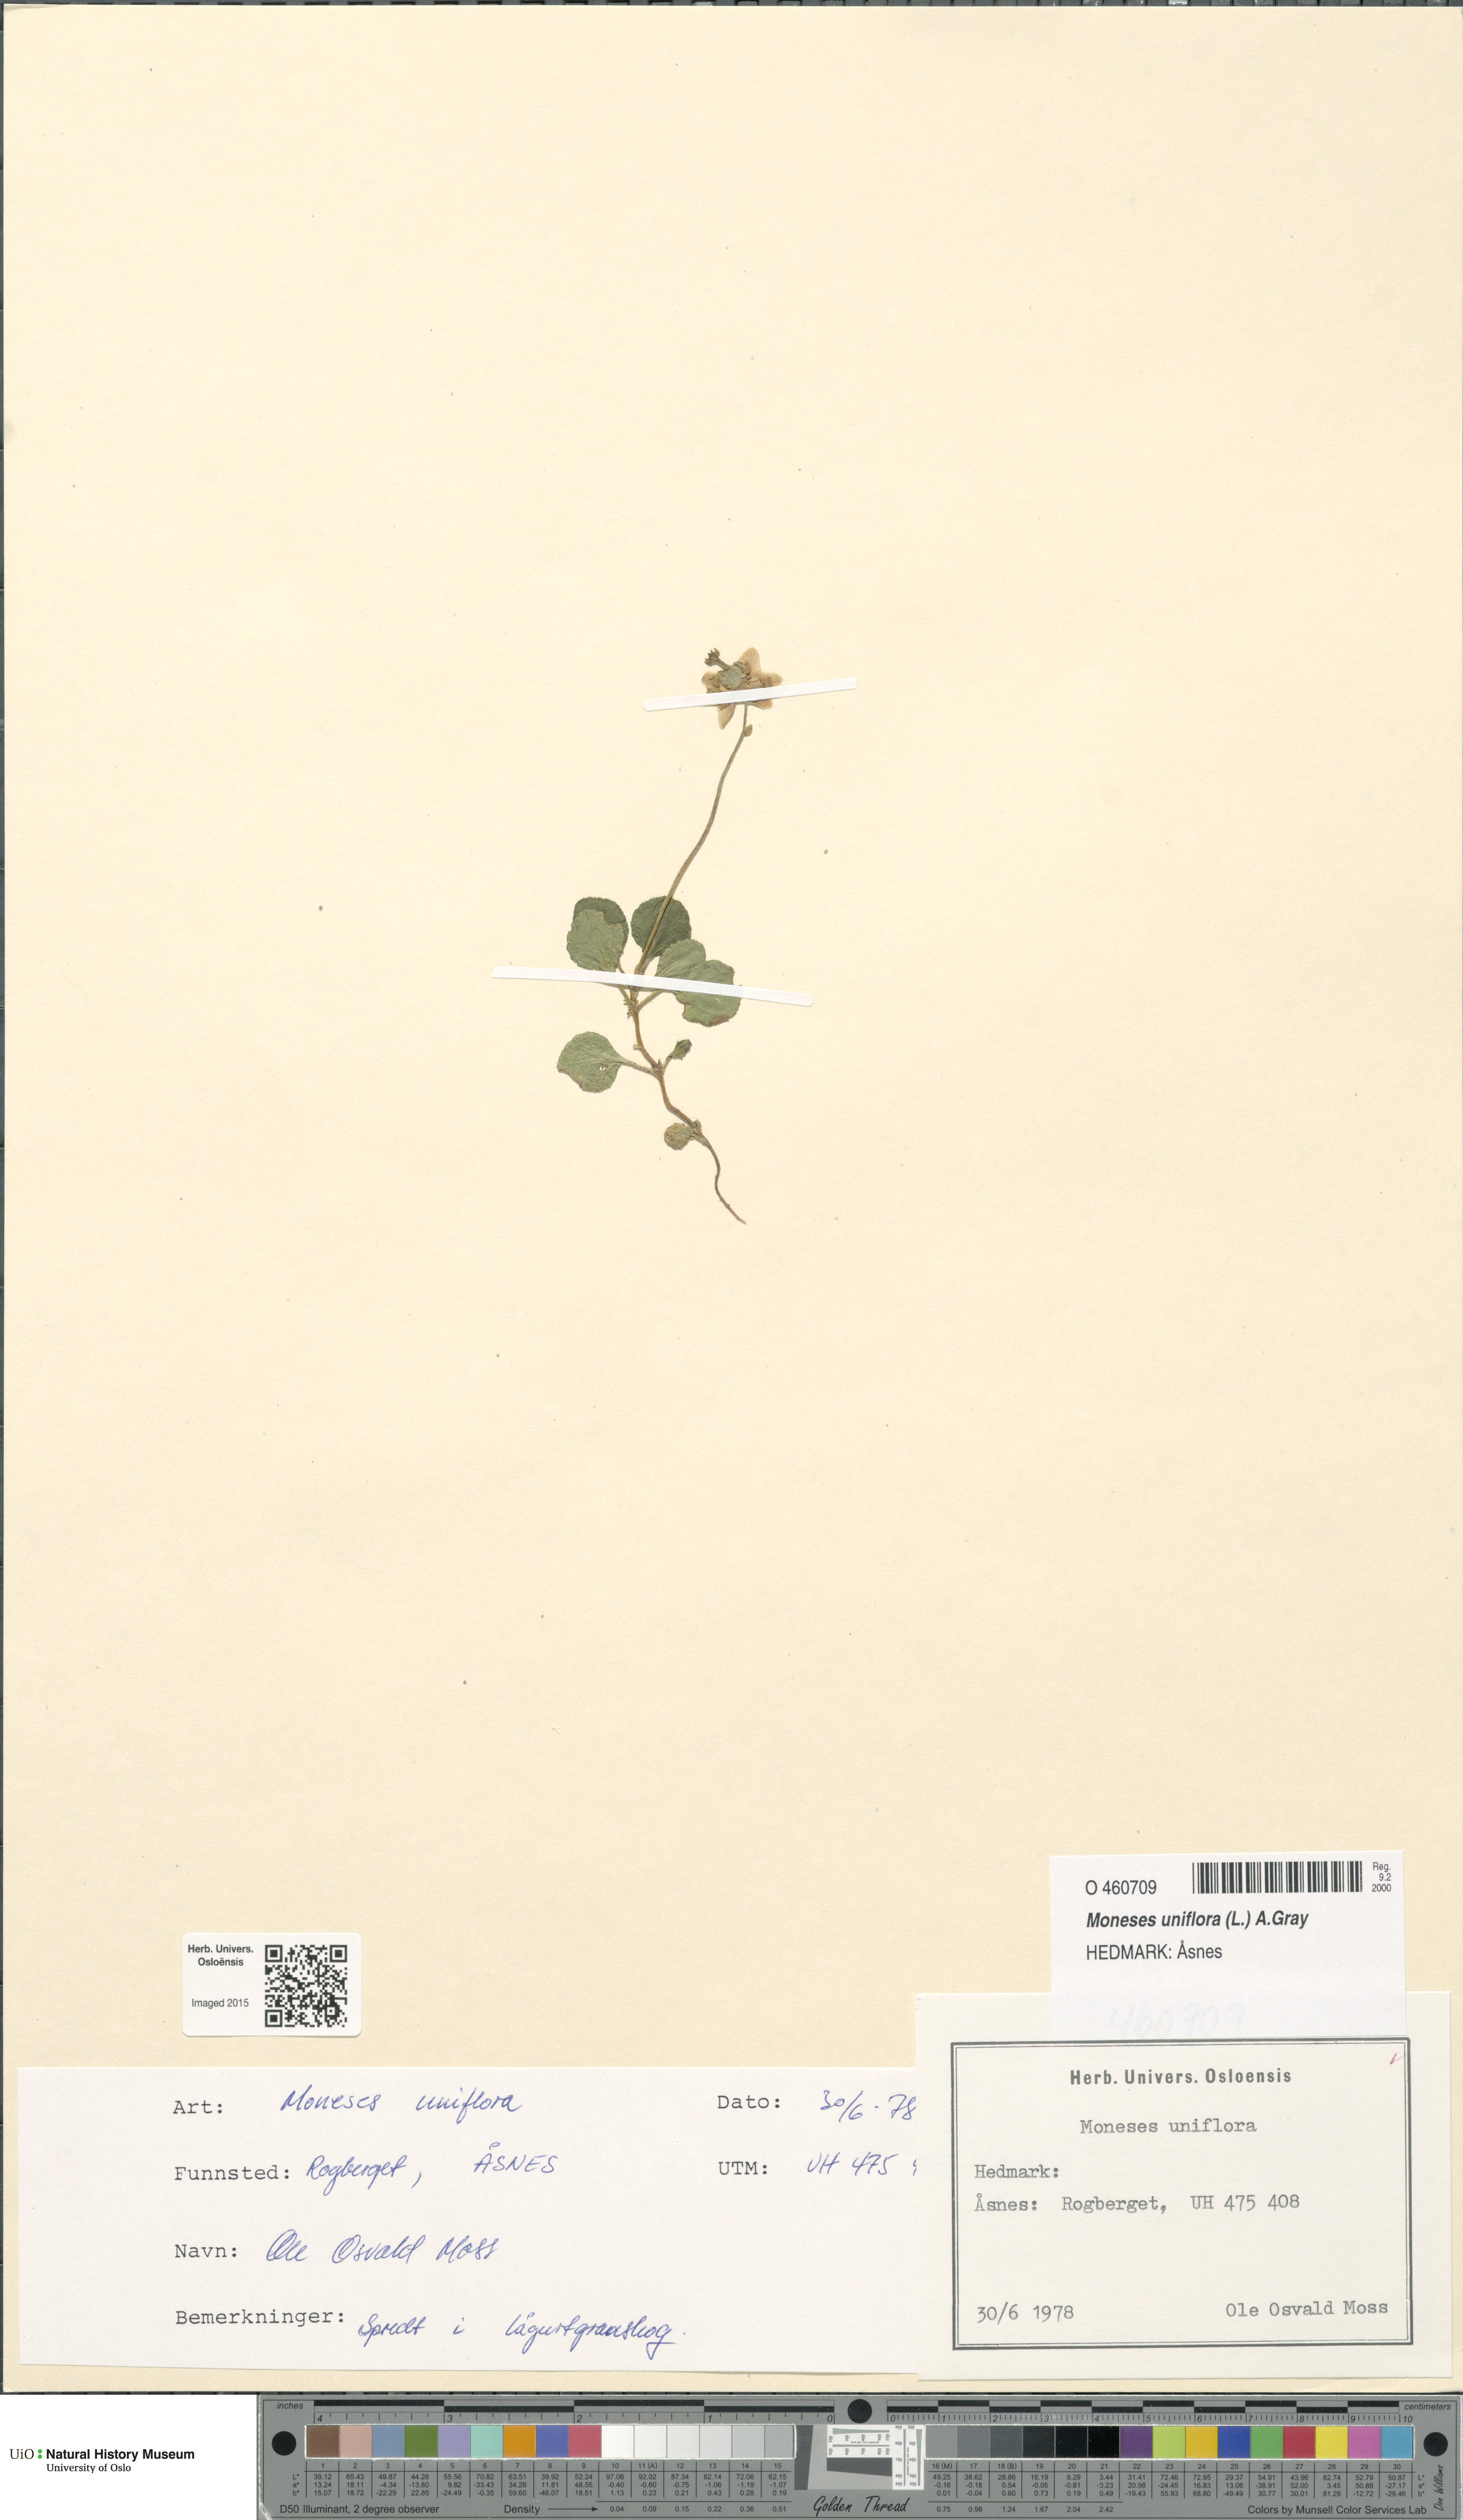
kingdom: Plantae
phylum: Tracheophyta
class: Magnoliopsida
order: Ericales
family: Ericaceae
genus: Moneses
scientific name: Moneses uniflora
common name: One-flowered wintergreen
